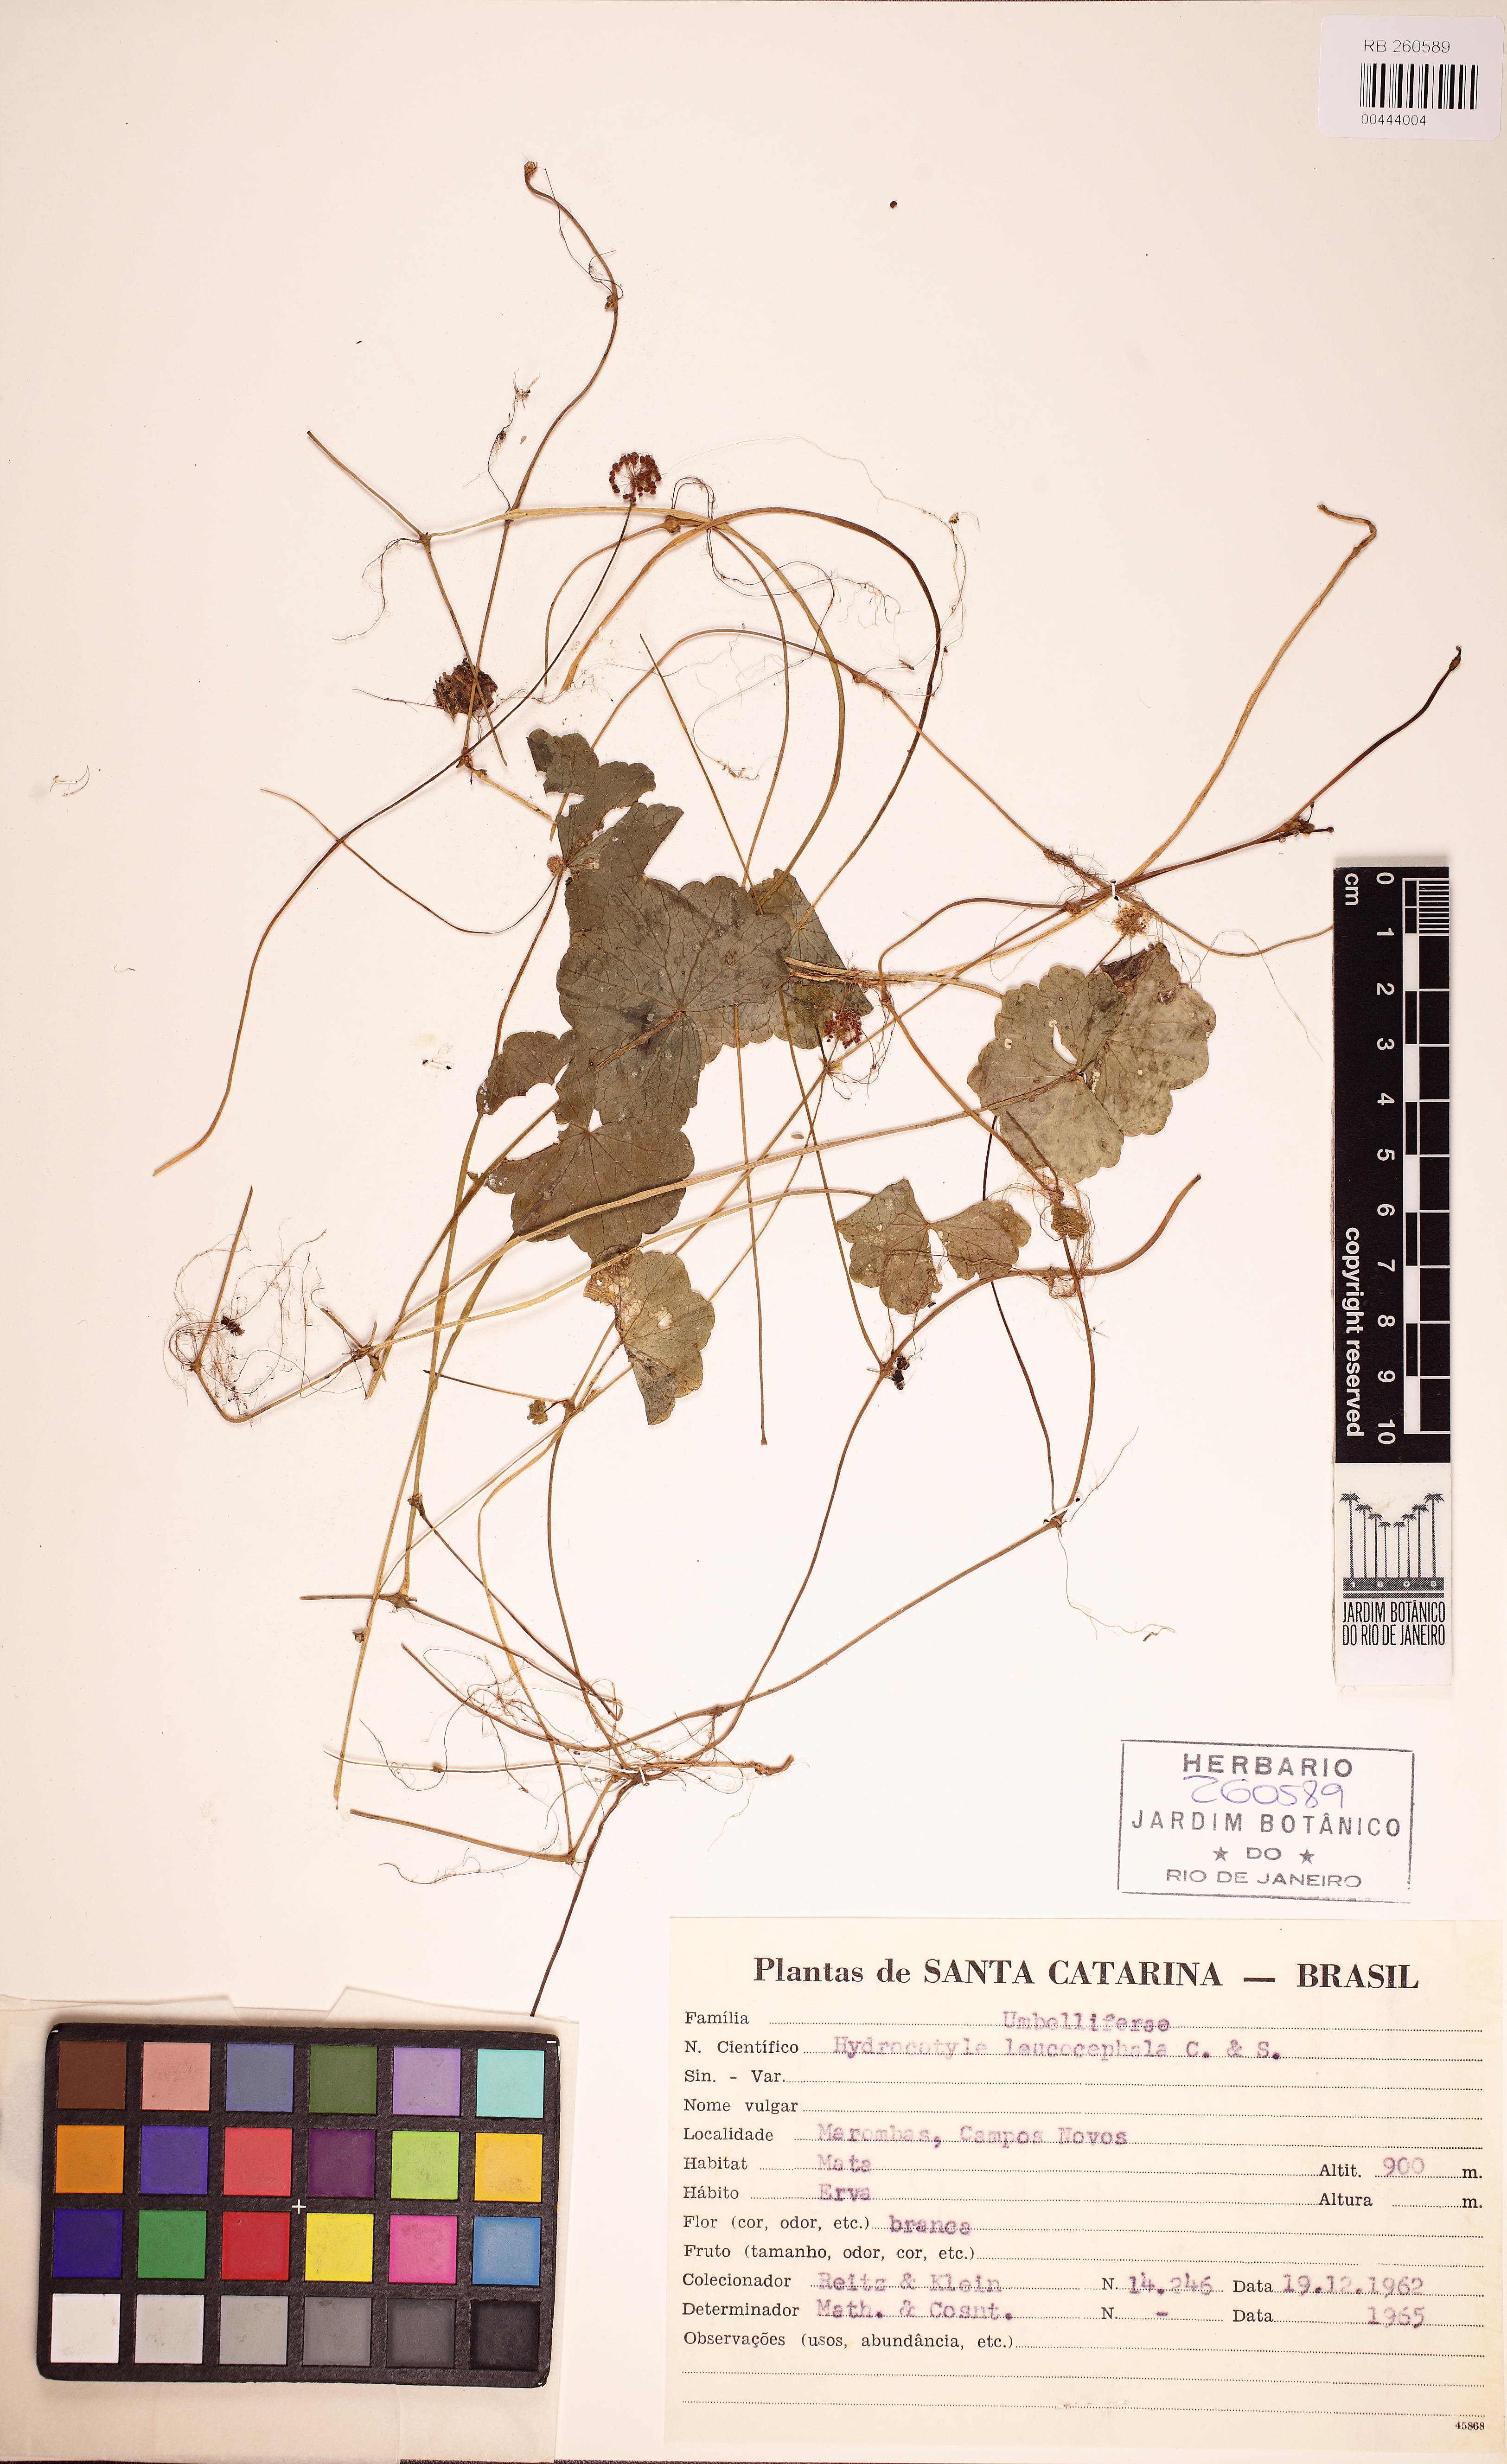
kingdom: Plantae
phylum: Tracheophyta
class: Magnoliopsida
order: Apiales
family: Araliaceae
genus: Hydrocotyle
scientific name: Hydrocotyle leucocephala
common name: Brazilian pennywort
